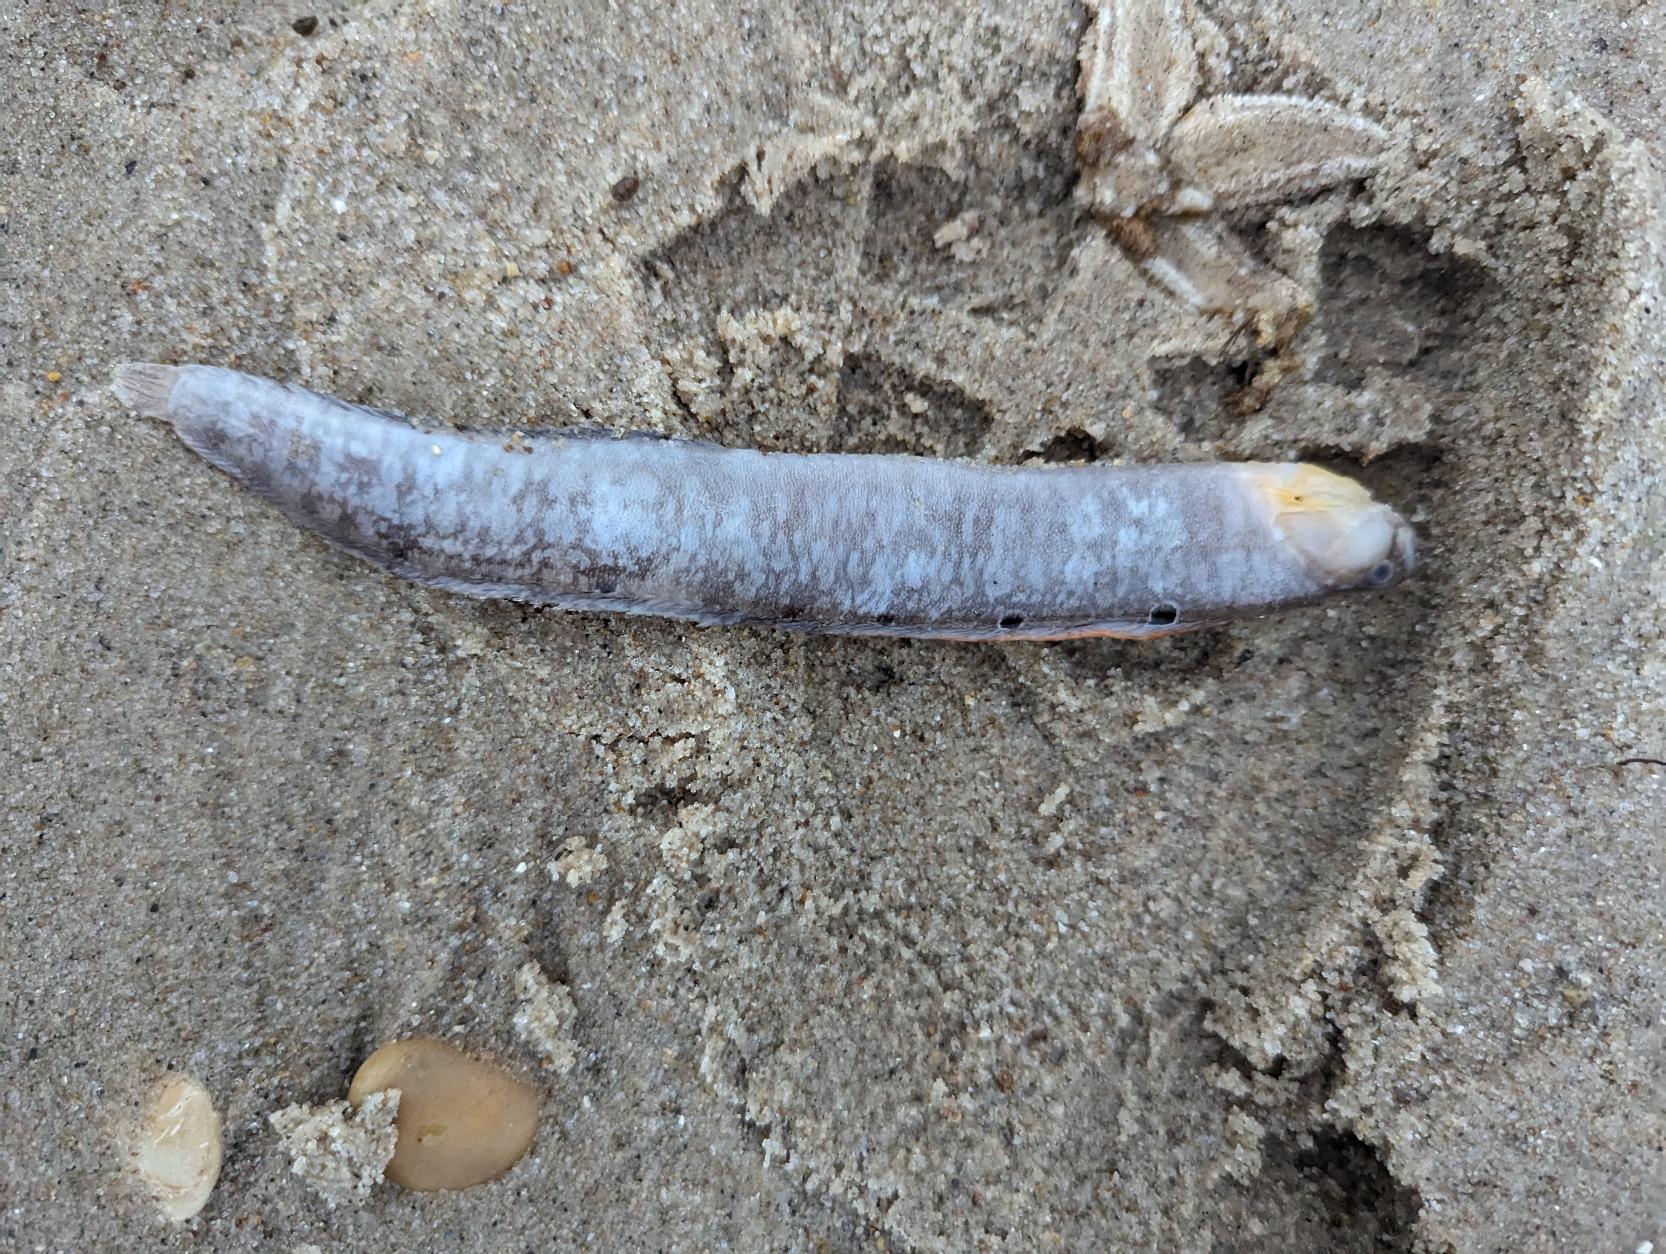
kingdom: Animalia
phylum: Chordata
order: Perciformes
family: Pholidae
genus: Pholis
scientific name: Pholis gunnellus
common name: Tangspræl
